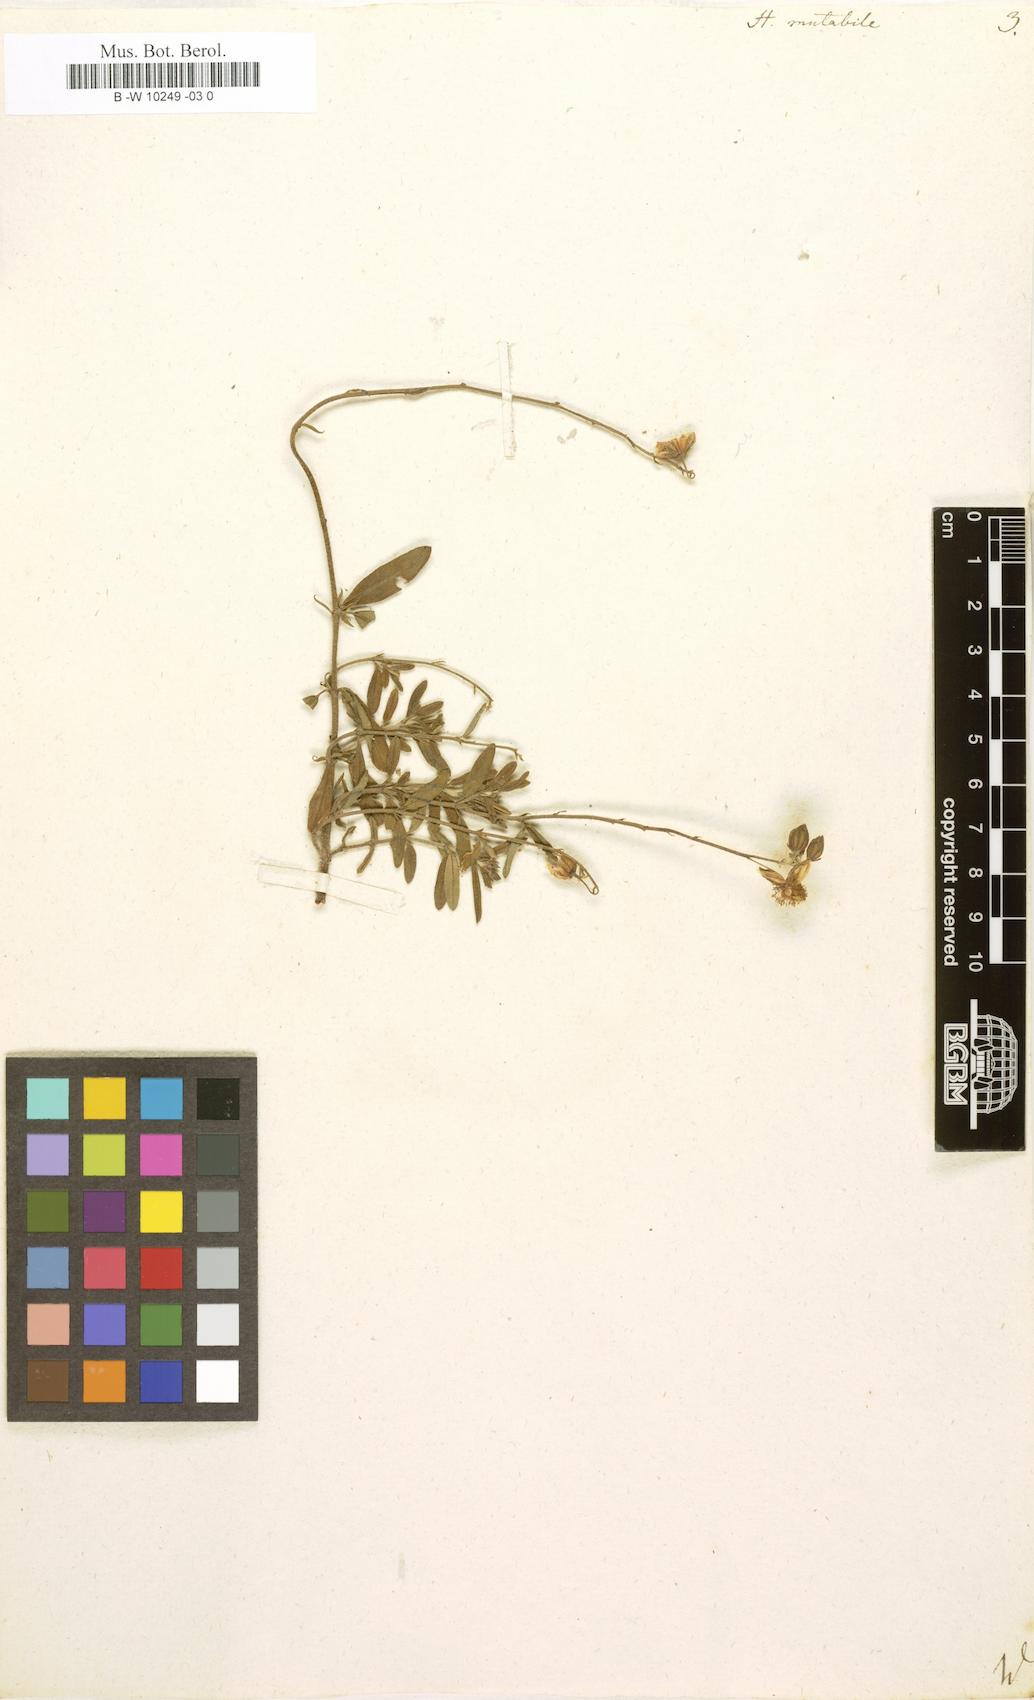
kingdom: Plantae
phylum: Tracheophyta
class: Magnoliopsida
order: Malvales
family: Cistaceae
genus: Helianthemum
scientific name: Helianthemum nummularium
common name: Common rock-rose
